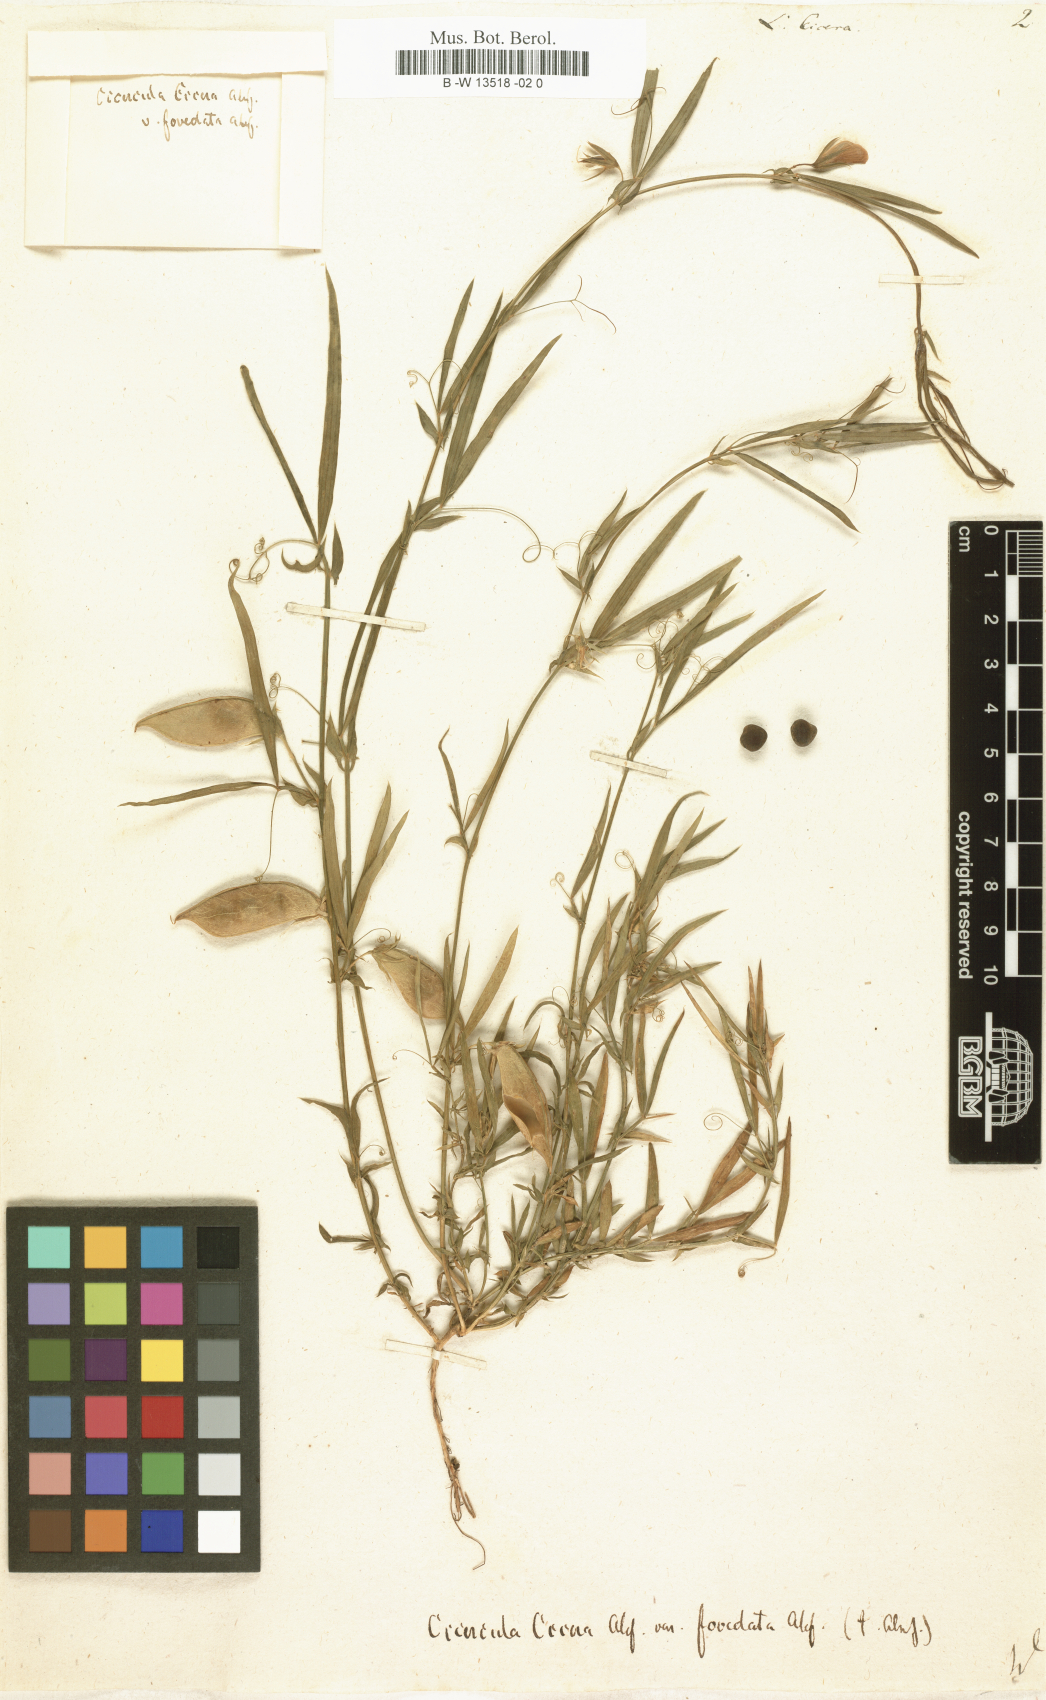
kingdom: Plantae
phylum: Tracheophyta
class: Magnoliopsida
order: Fabales
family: Fabaceae
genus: Lathyrus
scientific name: Lathyrus amphicarpos
